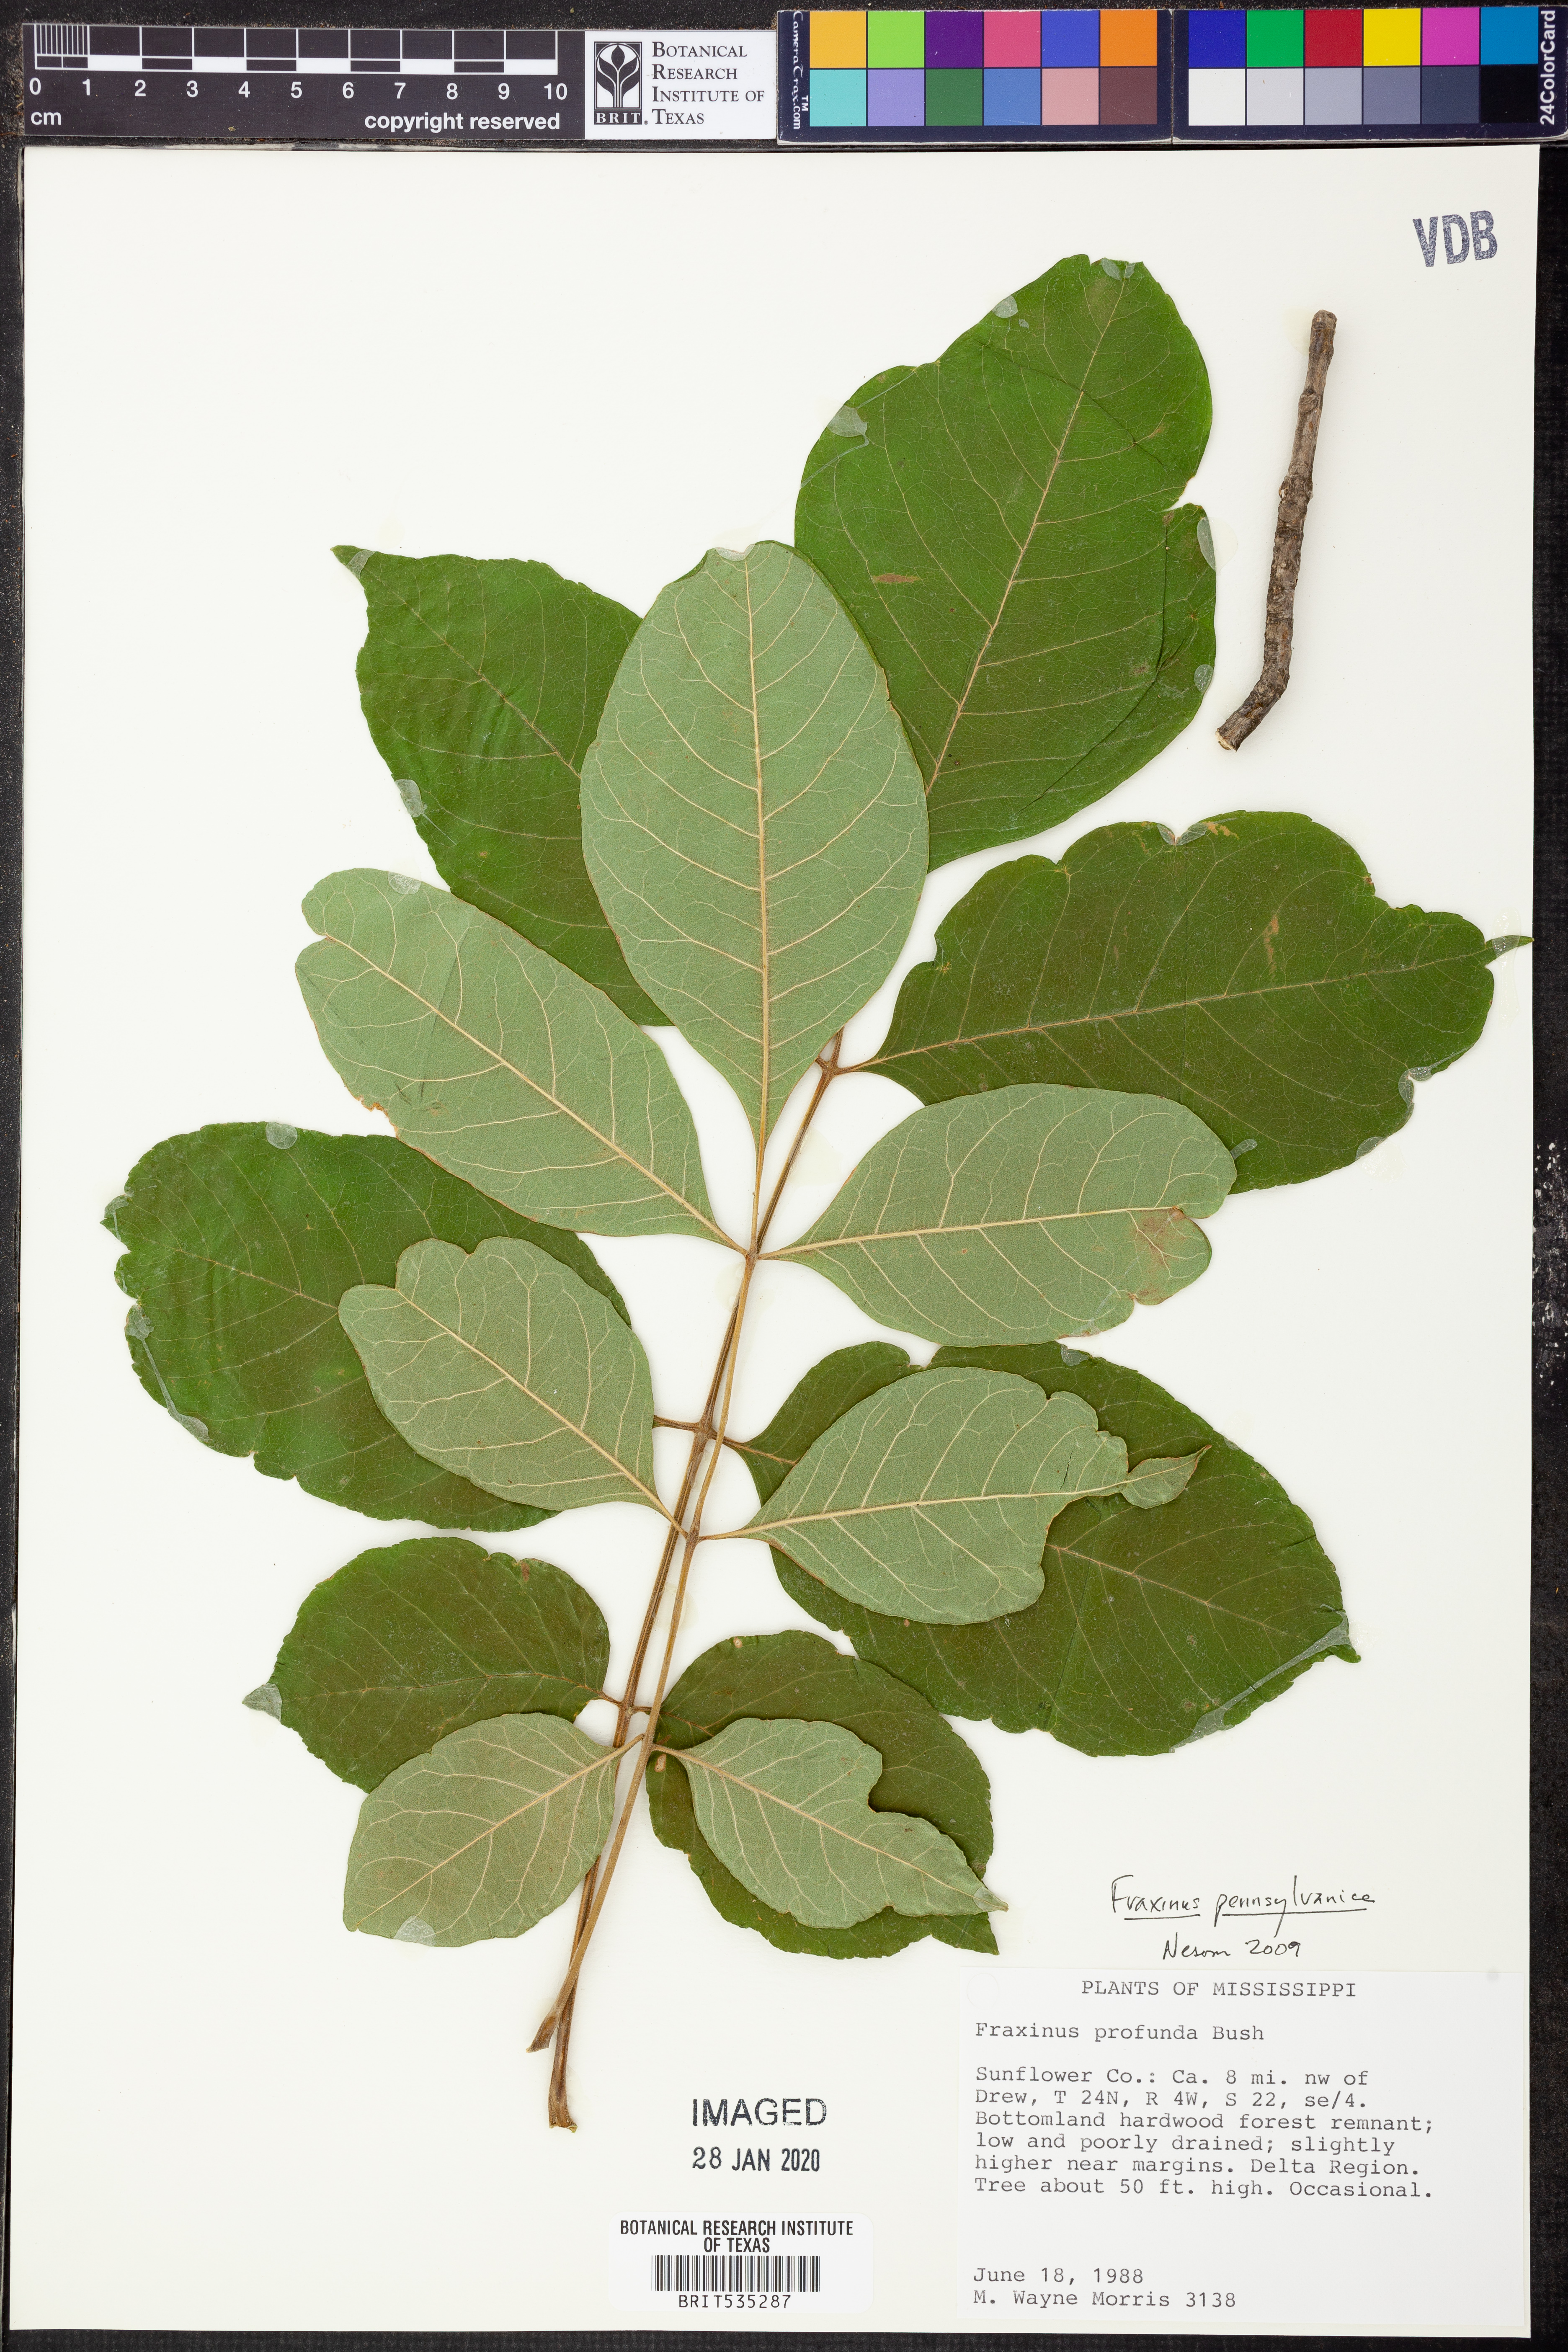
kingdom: Plantae
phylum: Tracheophyta
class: Magnoliopsida
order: Lamiales
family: Oleaceae
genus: Fraxinus
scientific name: Fraxinus pennsylvanica
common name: Green ash
